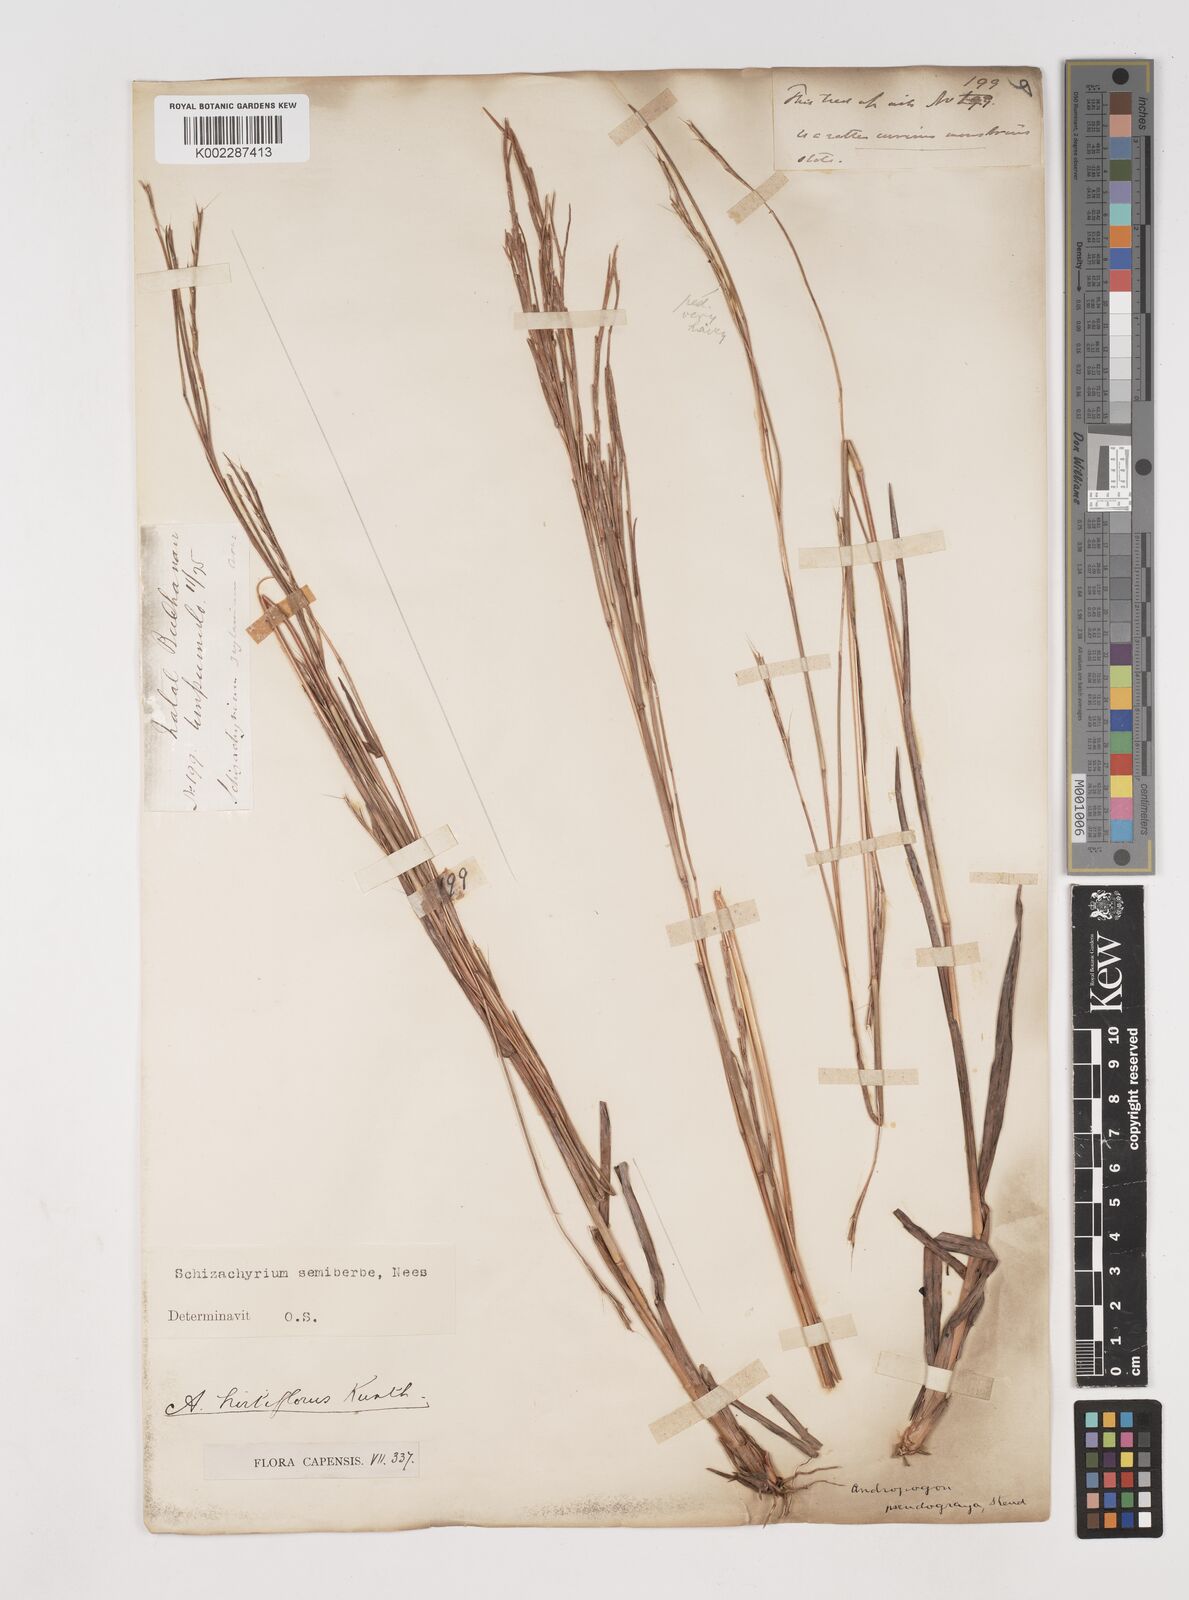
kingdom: Plantae
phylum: Tracheophyta
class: Liliopsida
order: Poales
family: Poaceae
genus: Schizachyrium
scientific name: Schizachyrium sanguineum
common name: Crimson bluestem
